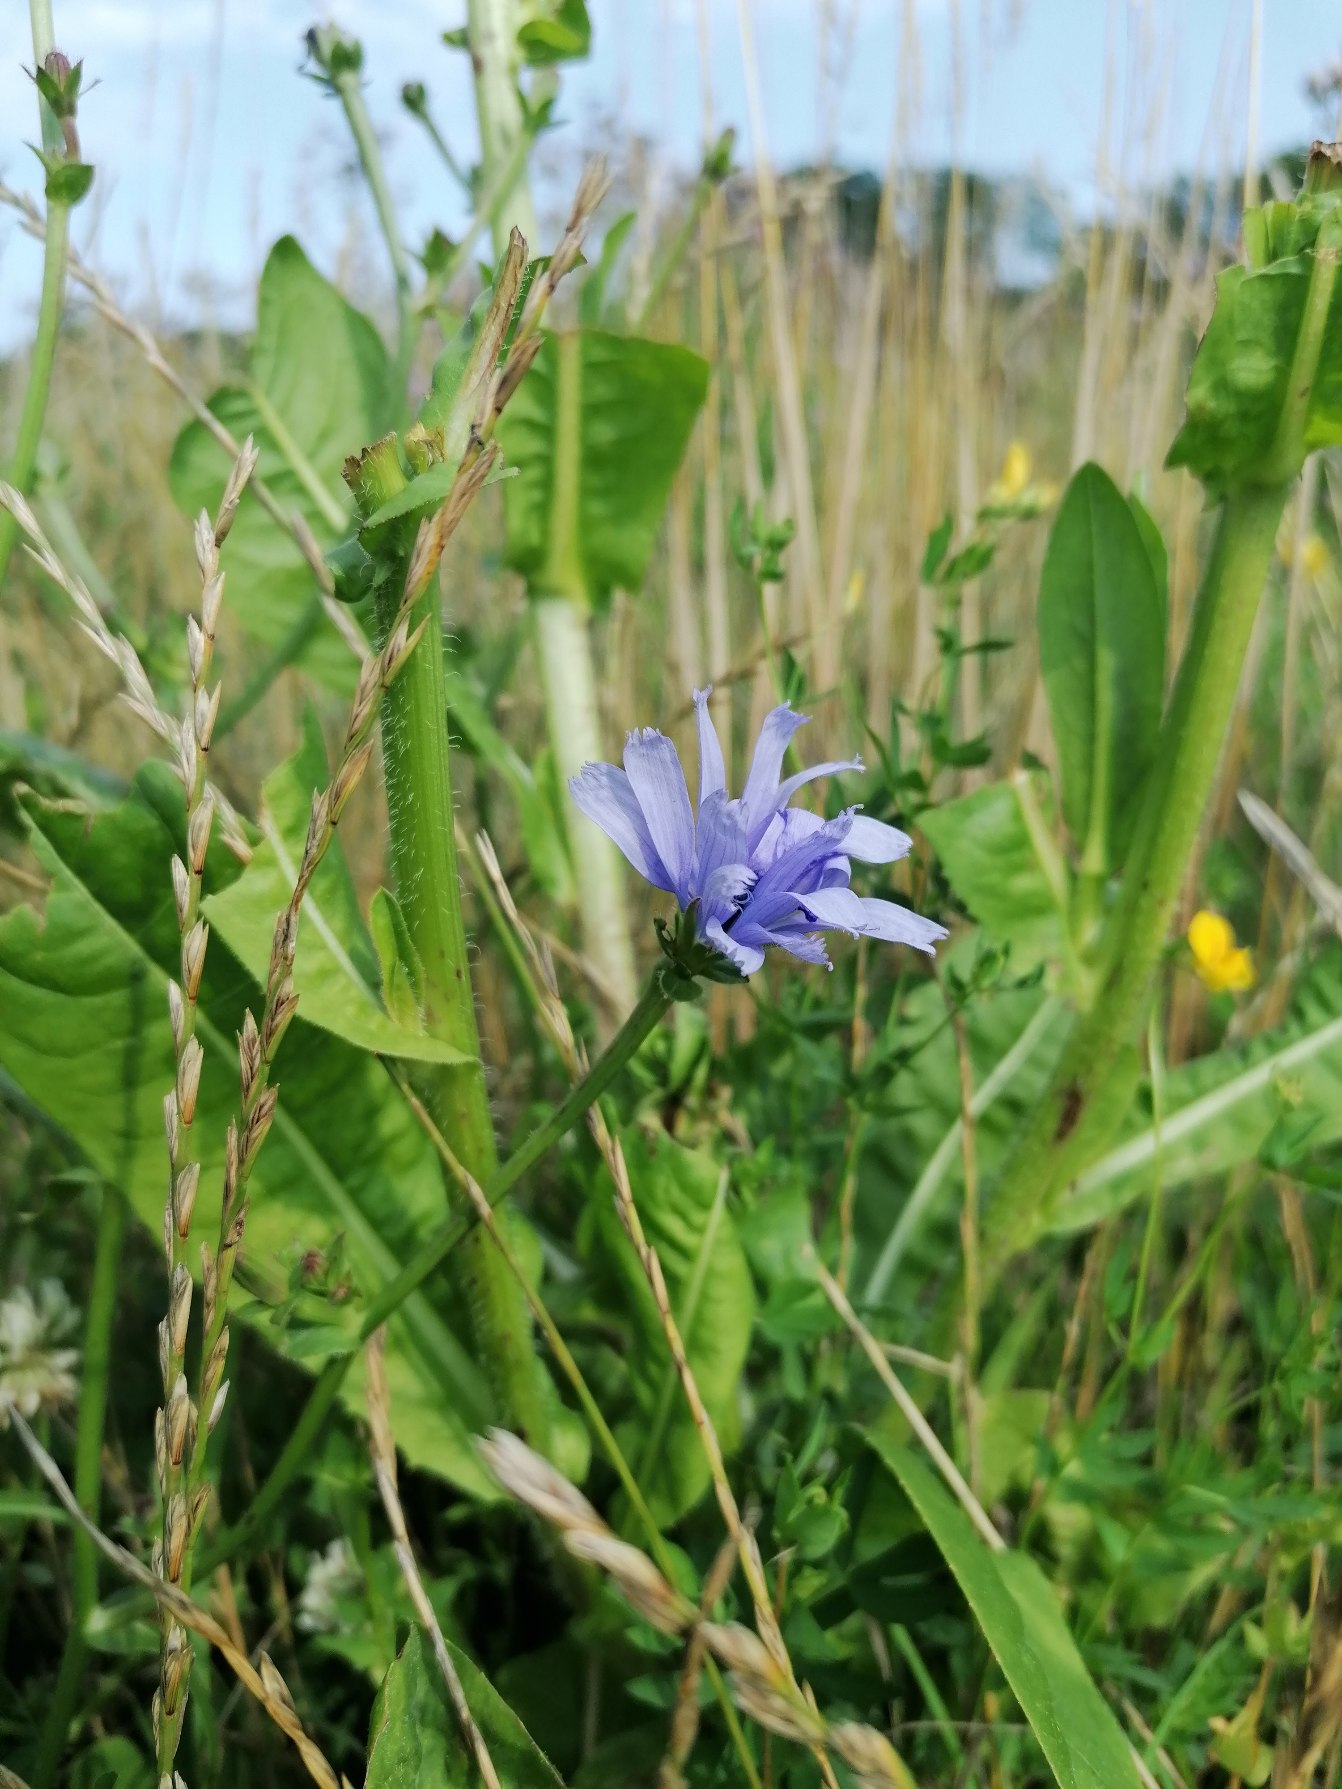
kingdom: Plantae
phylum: Tracheophyta
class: Magnoliopsida
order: Asterales
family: Asteraceae
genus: Cichorium
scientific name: Cichorium intybus
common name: Cikorie
